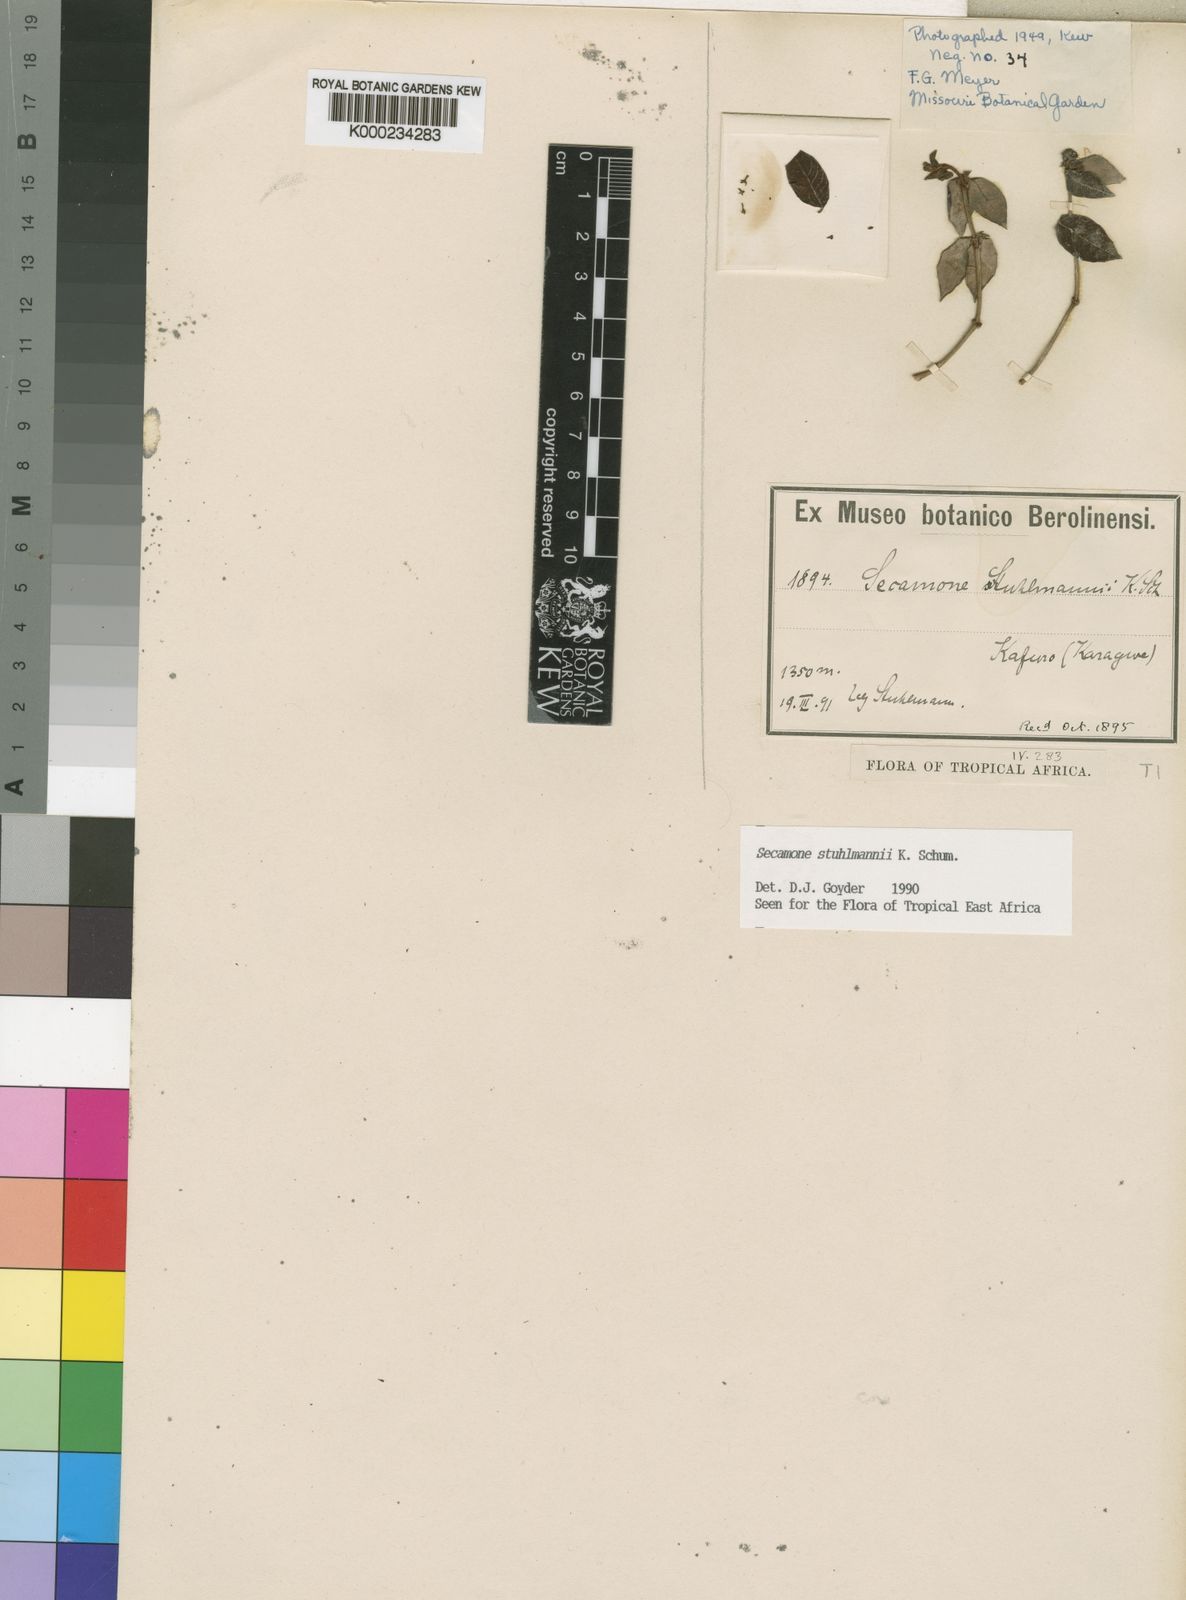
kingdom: Plantae
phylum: Tracheophyta
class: Magnoliopsida
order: Gentianales
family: Apocynaceae
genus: Secamone
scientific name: Secamone stuhlmannii
